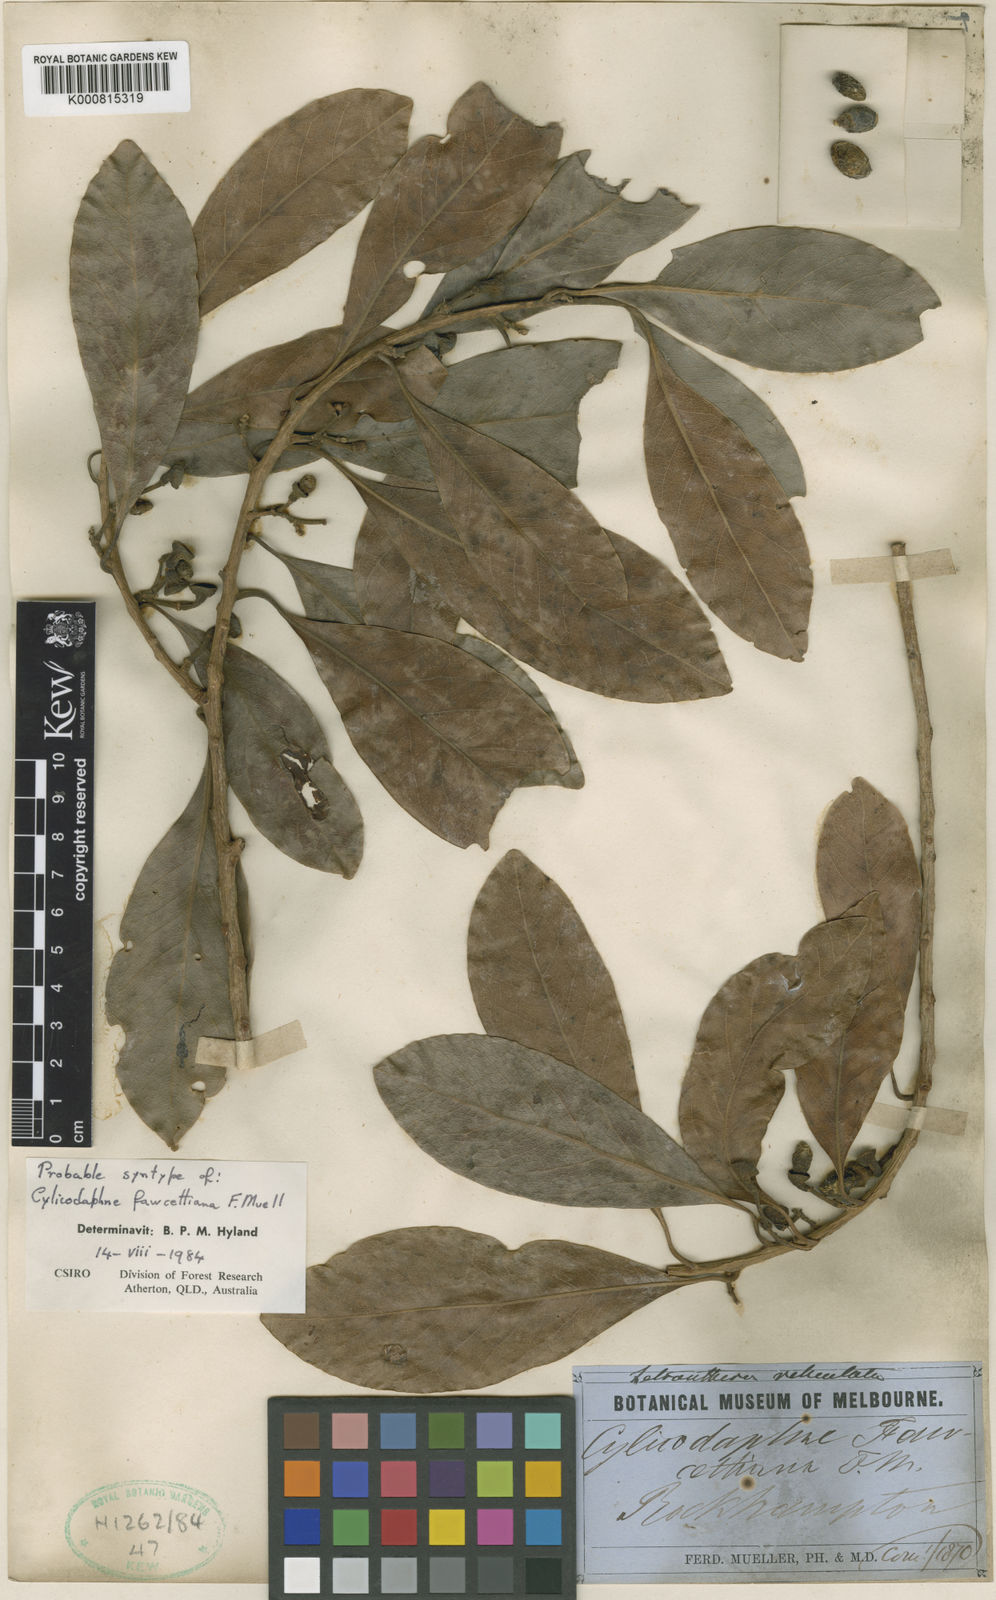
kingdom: Plantae
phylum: Tracheophyta
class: Magnoliopsida
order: Laurales
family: Lauraceae
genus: Litsea
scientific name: Litsea fawcettiana
